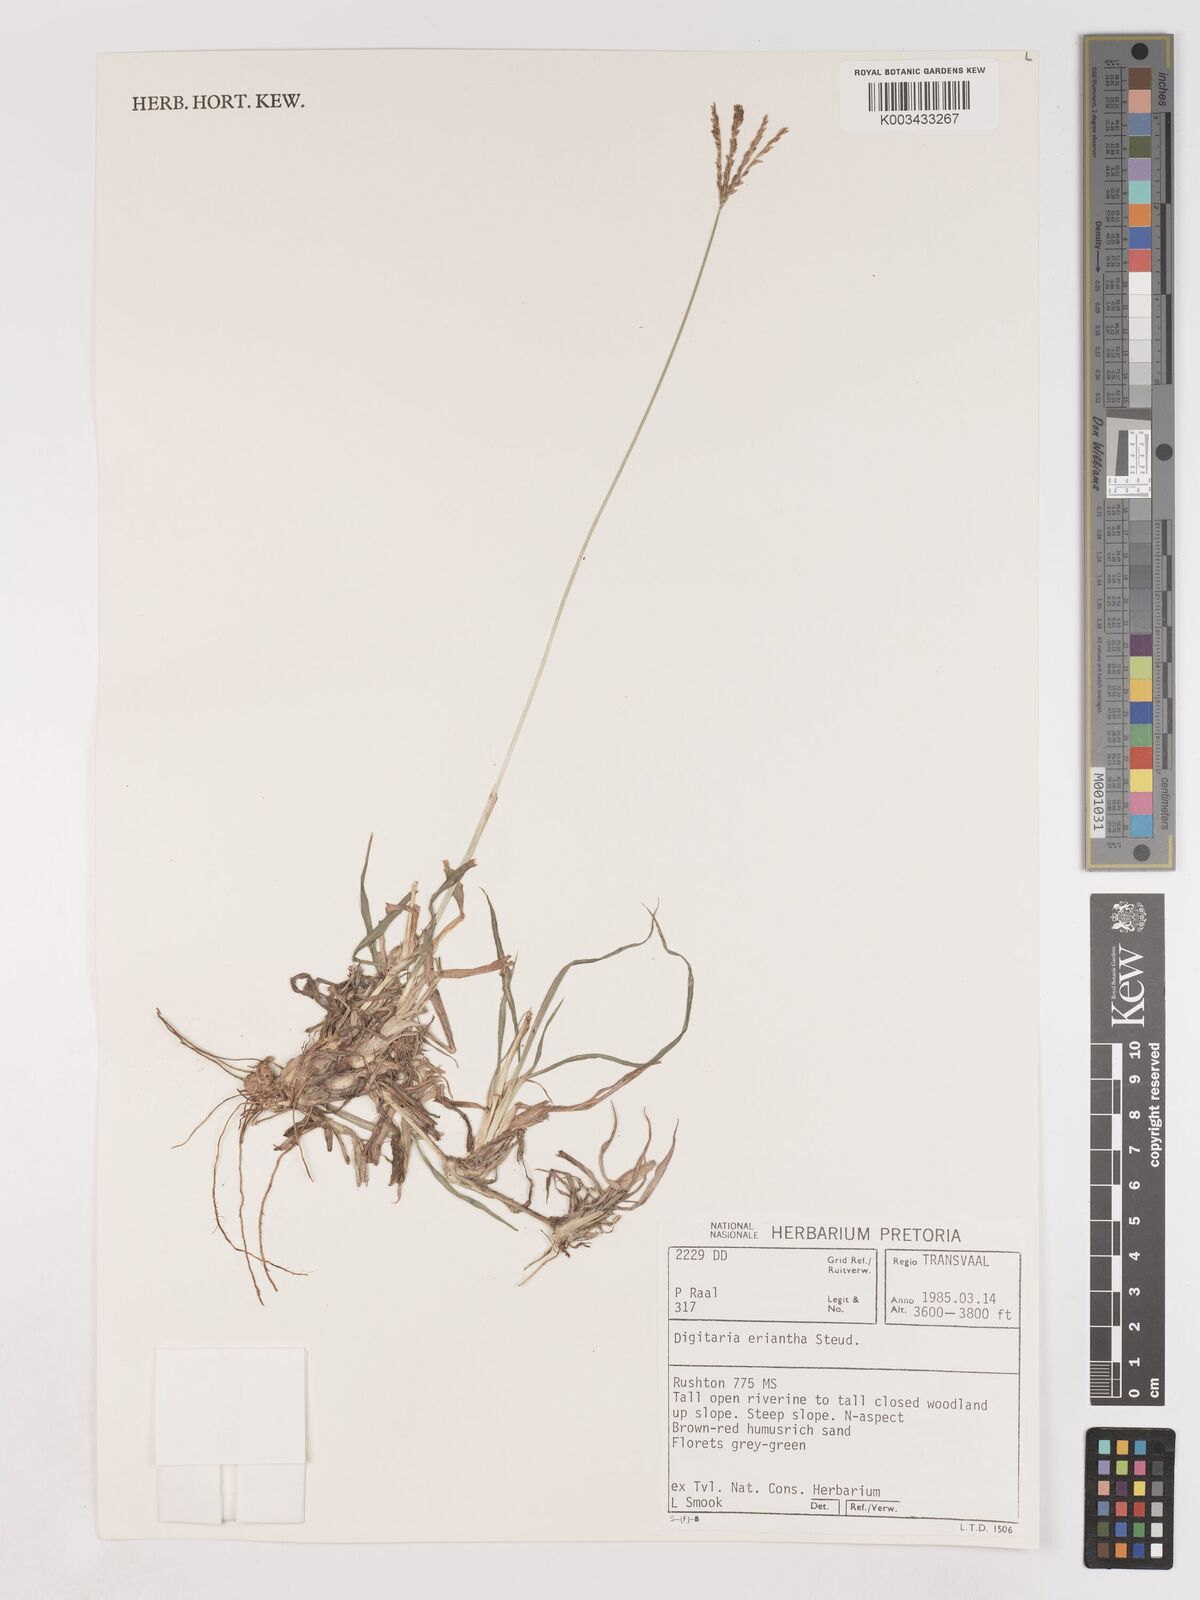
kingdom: Plantae
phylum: Tracheophyta
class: Liliopsida
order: Poales
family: Poaceae
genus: Digitaria
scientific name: Digitaria eriantha
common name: Digitgrass
